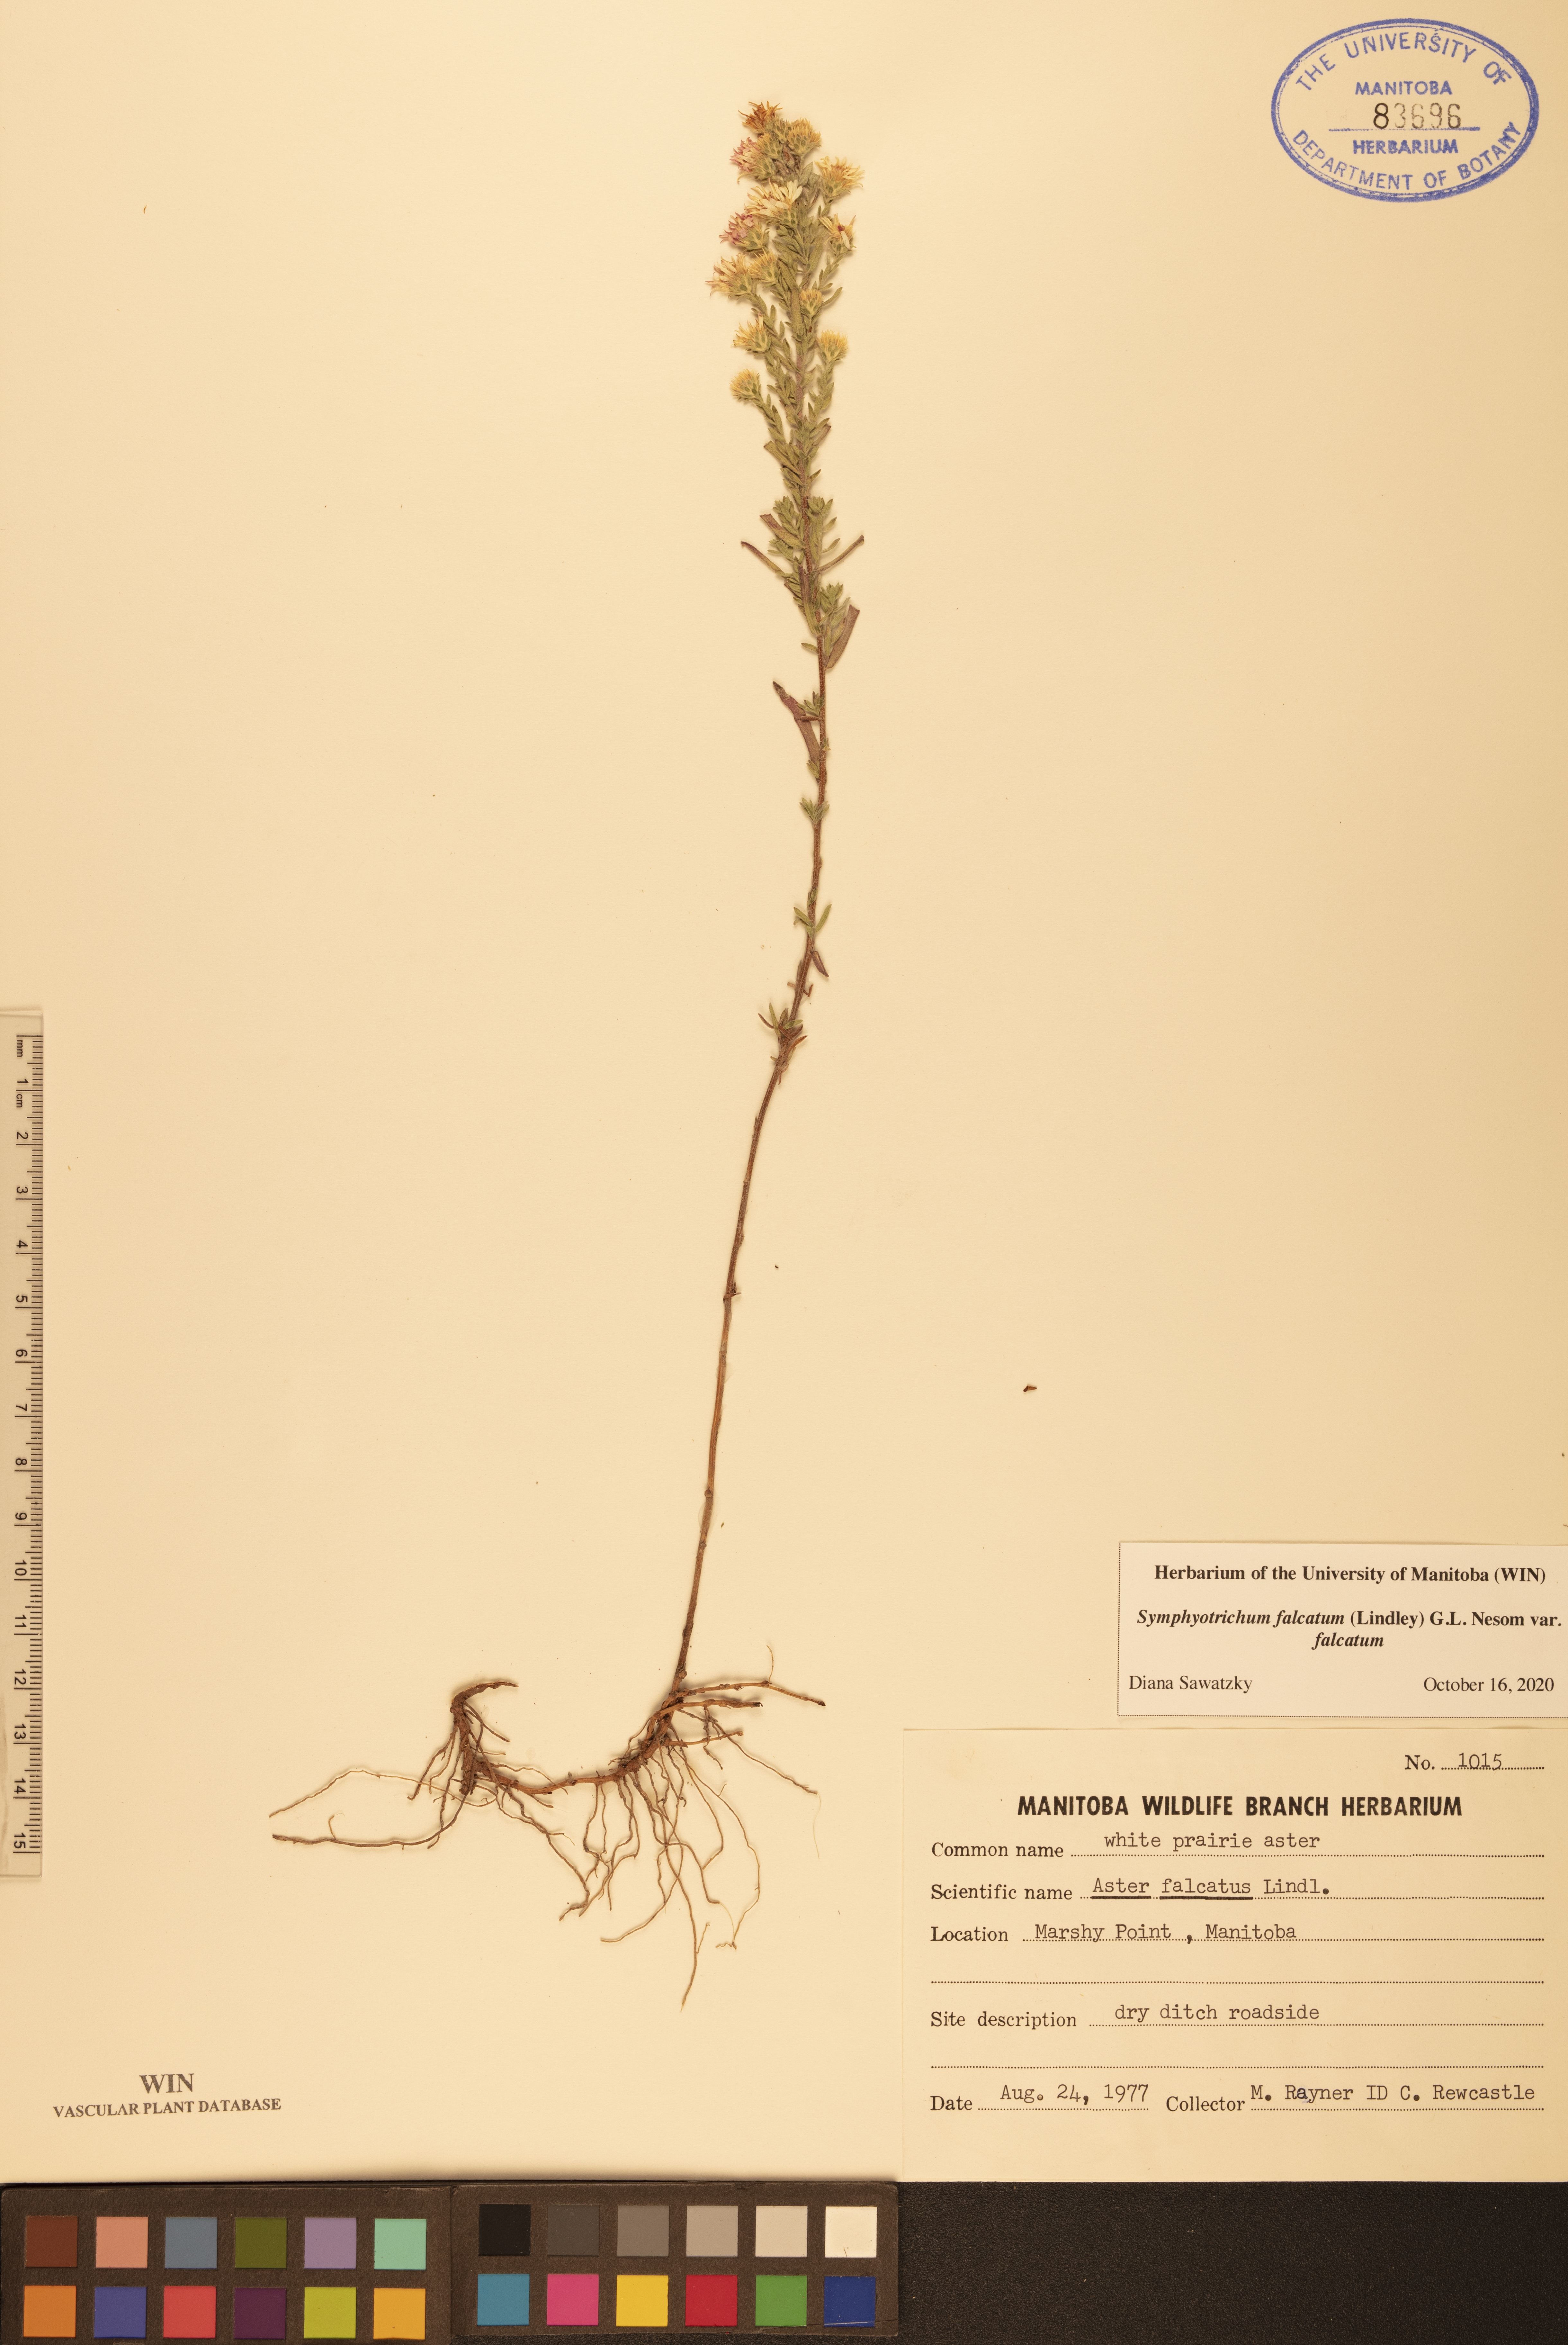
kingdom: Plantae
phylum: Tracheophyta
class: Magnoliopsida
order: Asterales
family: Asteraceae
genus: Symphyotrichum
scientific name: Symphyotrichum falcatum
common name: Creeping white prairie aster
